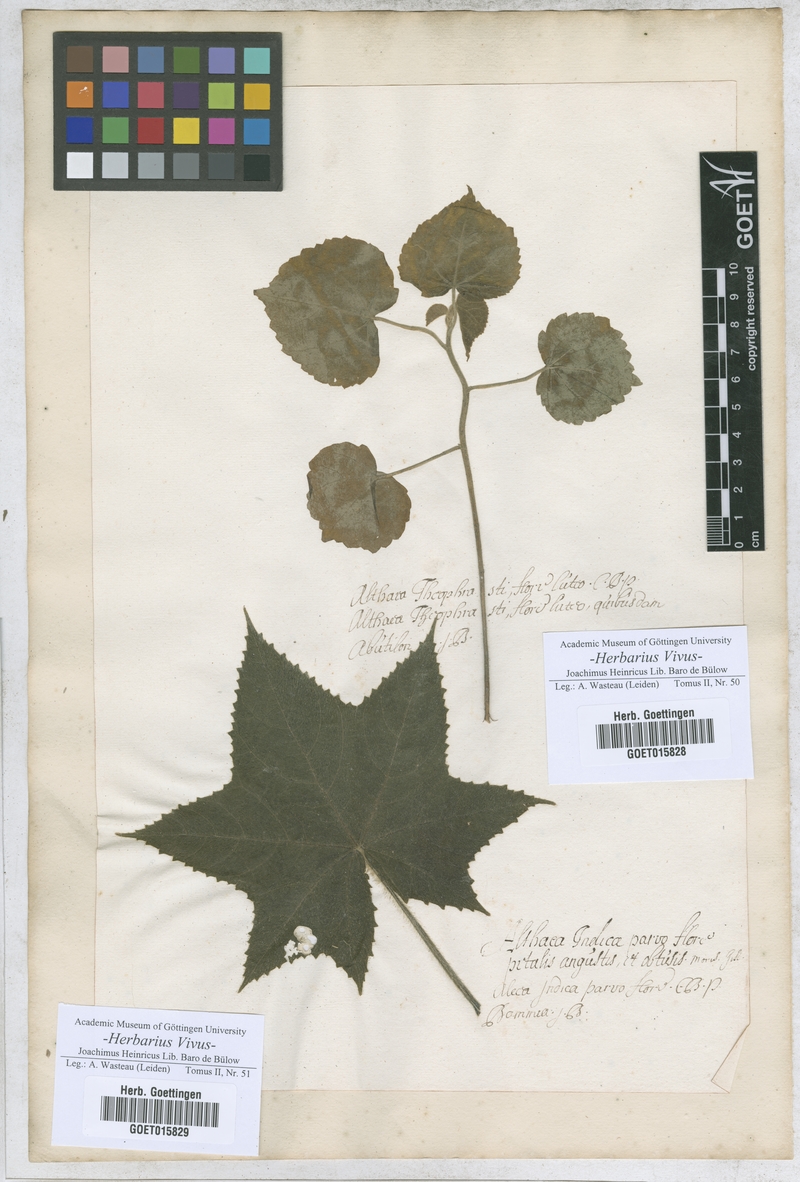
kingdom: Plantae
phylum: Tracheophyta
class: Magnoliopsida
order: Malvales
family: Malvaceae
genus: Abutilon
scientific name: Abutilon theophrasti
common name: Velvetleaf
